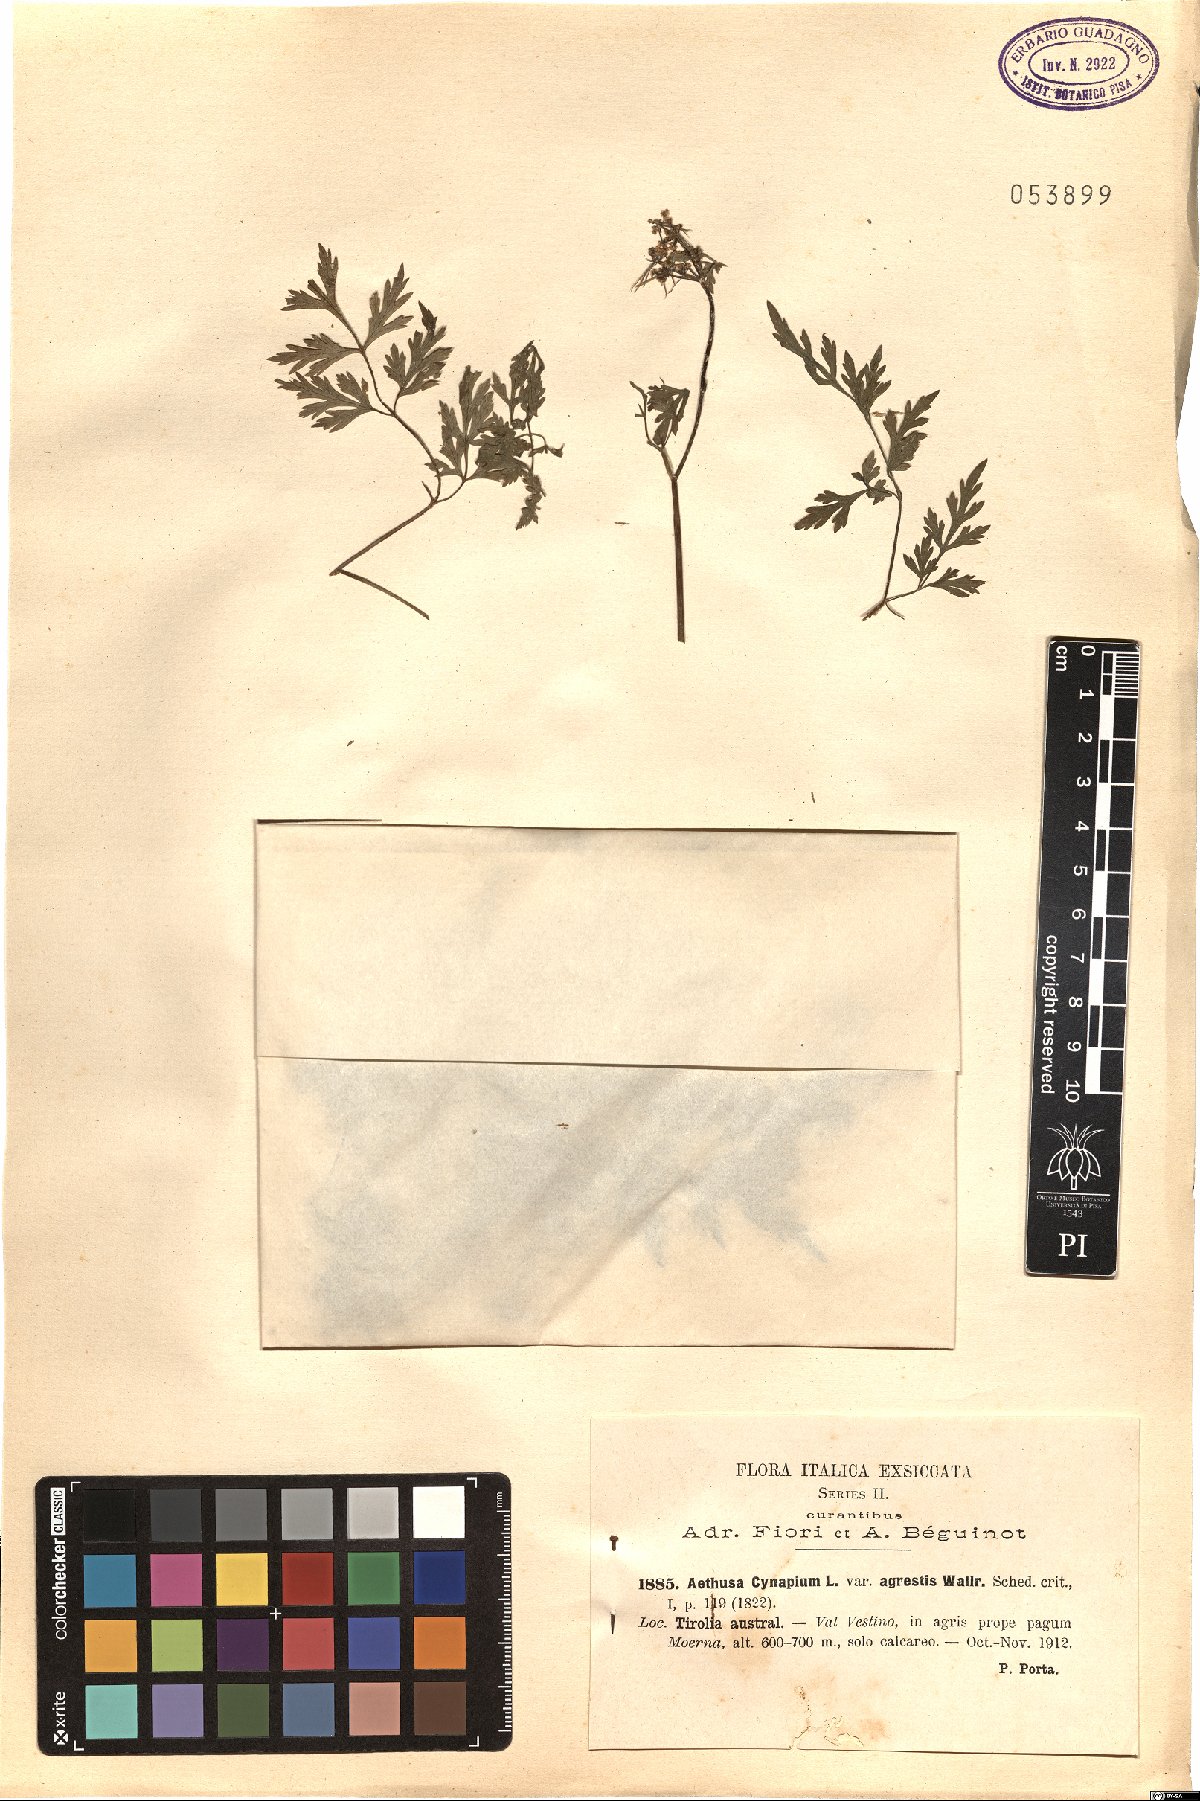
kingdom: Plantae
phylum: Tracheophyta
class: Magnoliopsida
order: Apiales
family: Apiaceae
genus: Aethusa
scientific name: Aethusa cynapium
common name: Fool's parsley
